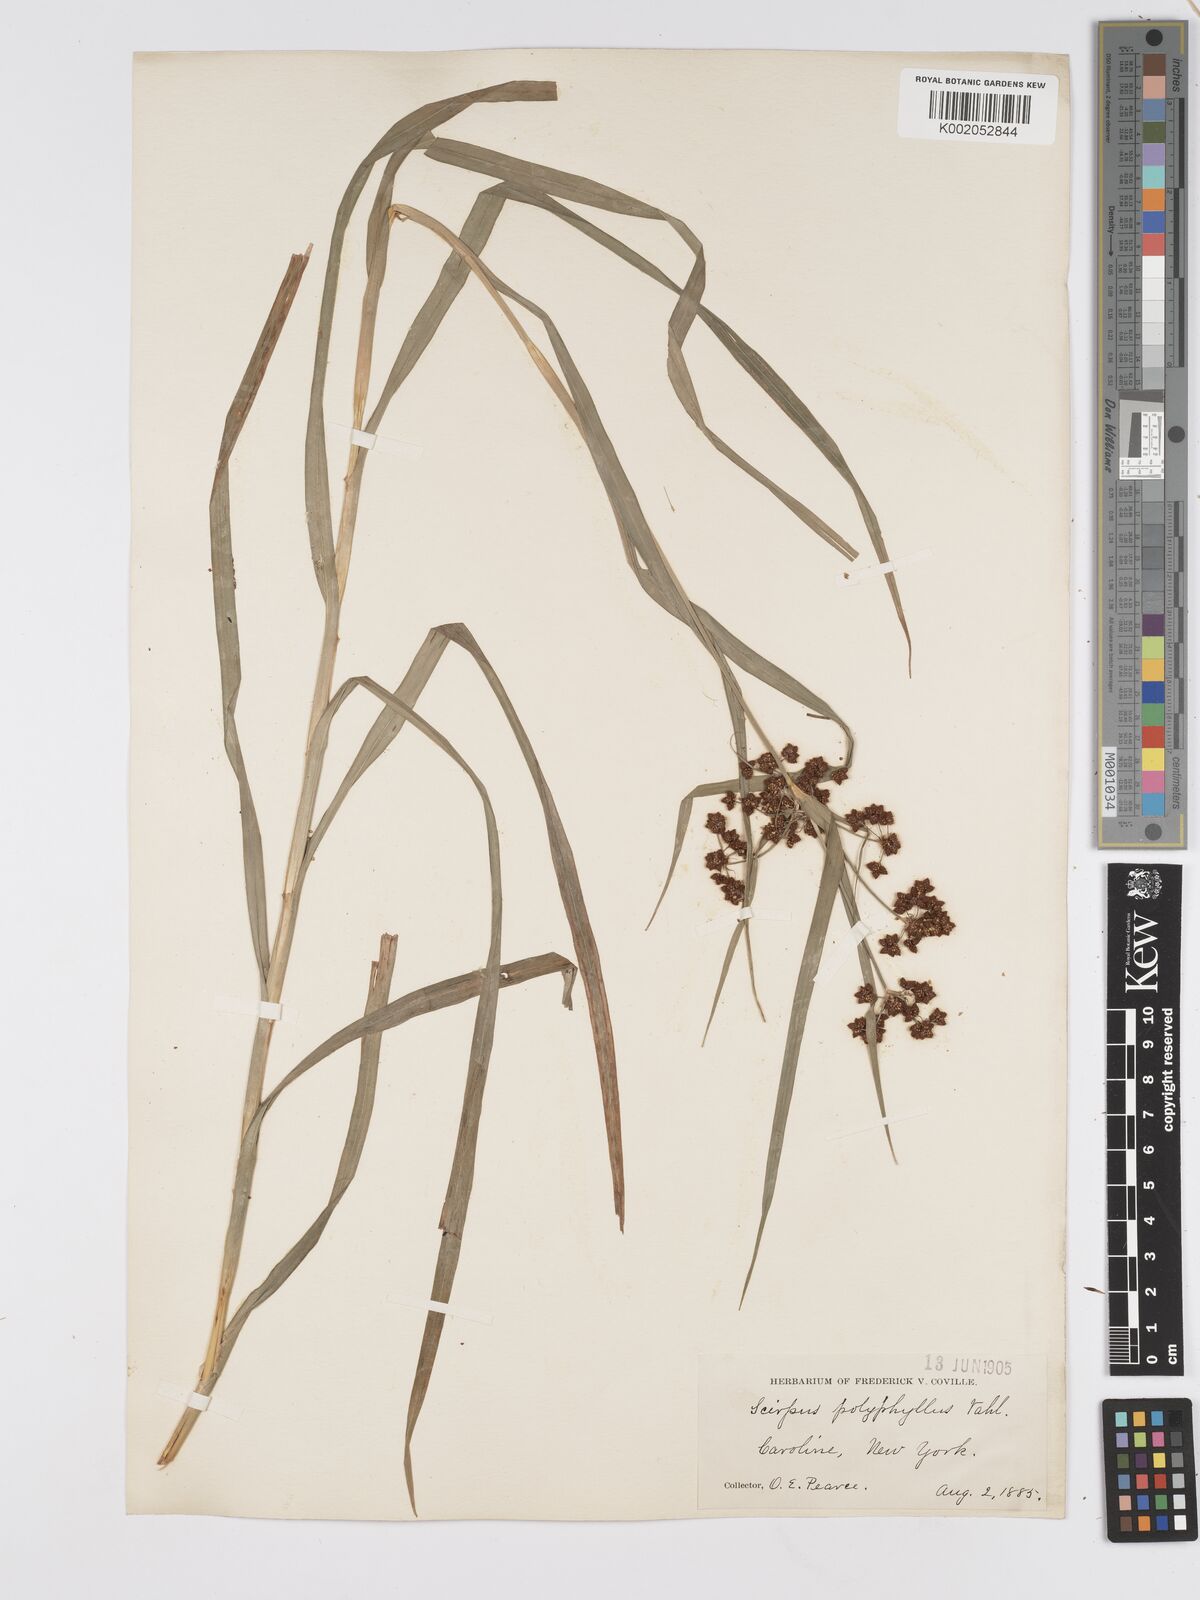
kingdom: Plantae
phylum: Tracheophyta
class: Liliopsida
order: Poales
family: Cyperaceae
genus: Scirpus
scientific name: Scirpus polyphyllus
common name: Leafy bulrush
